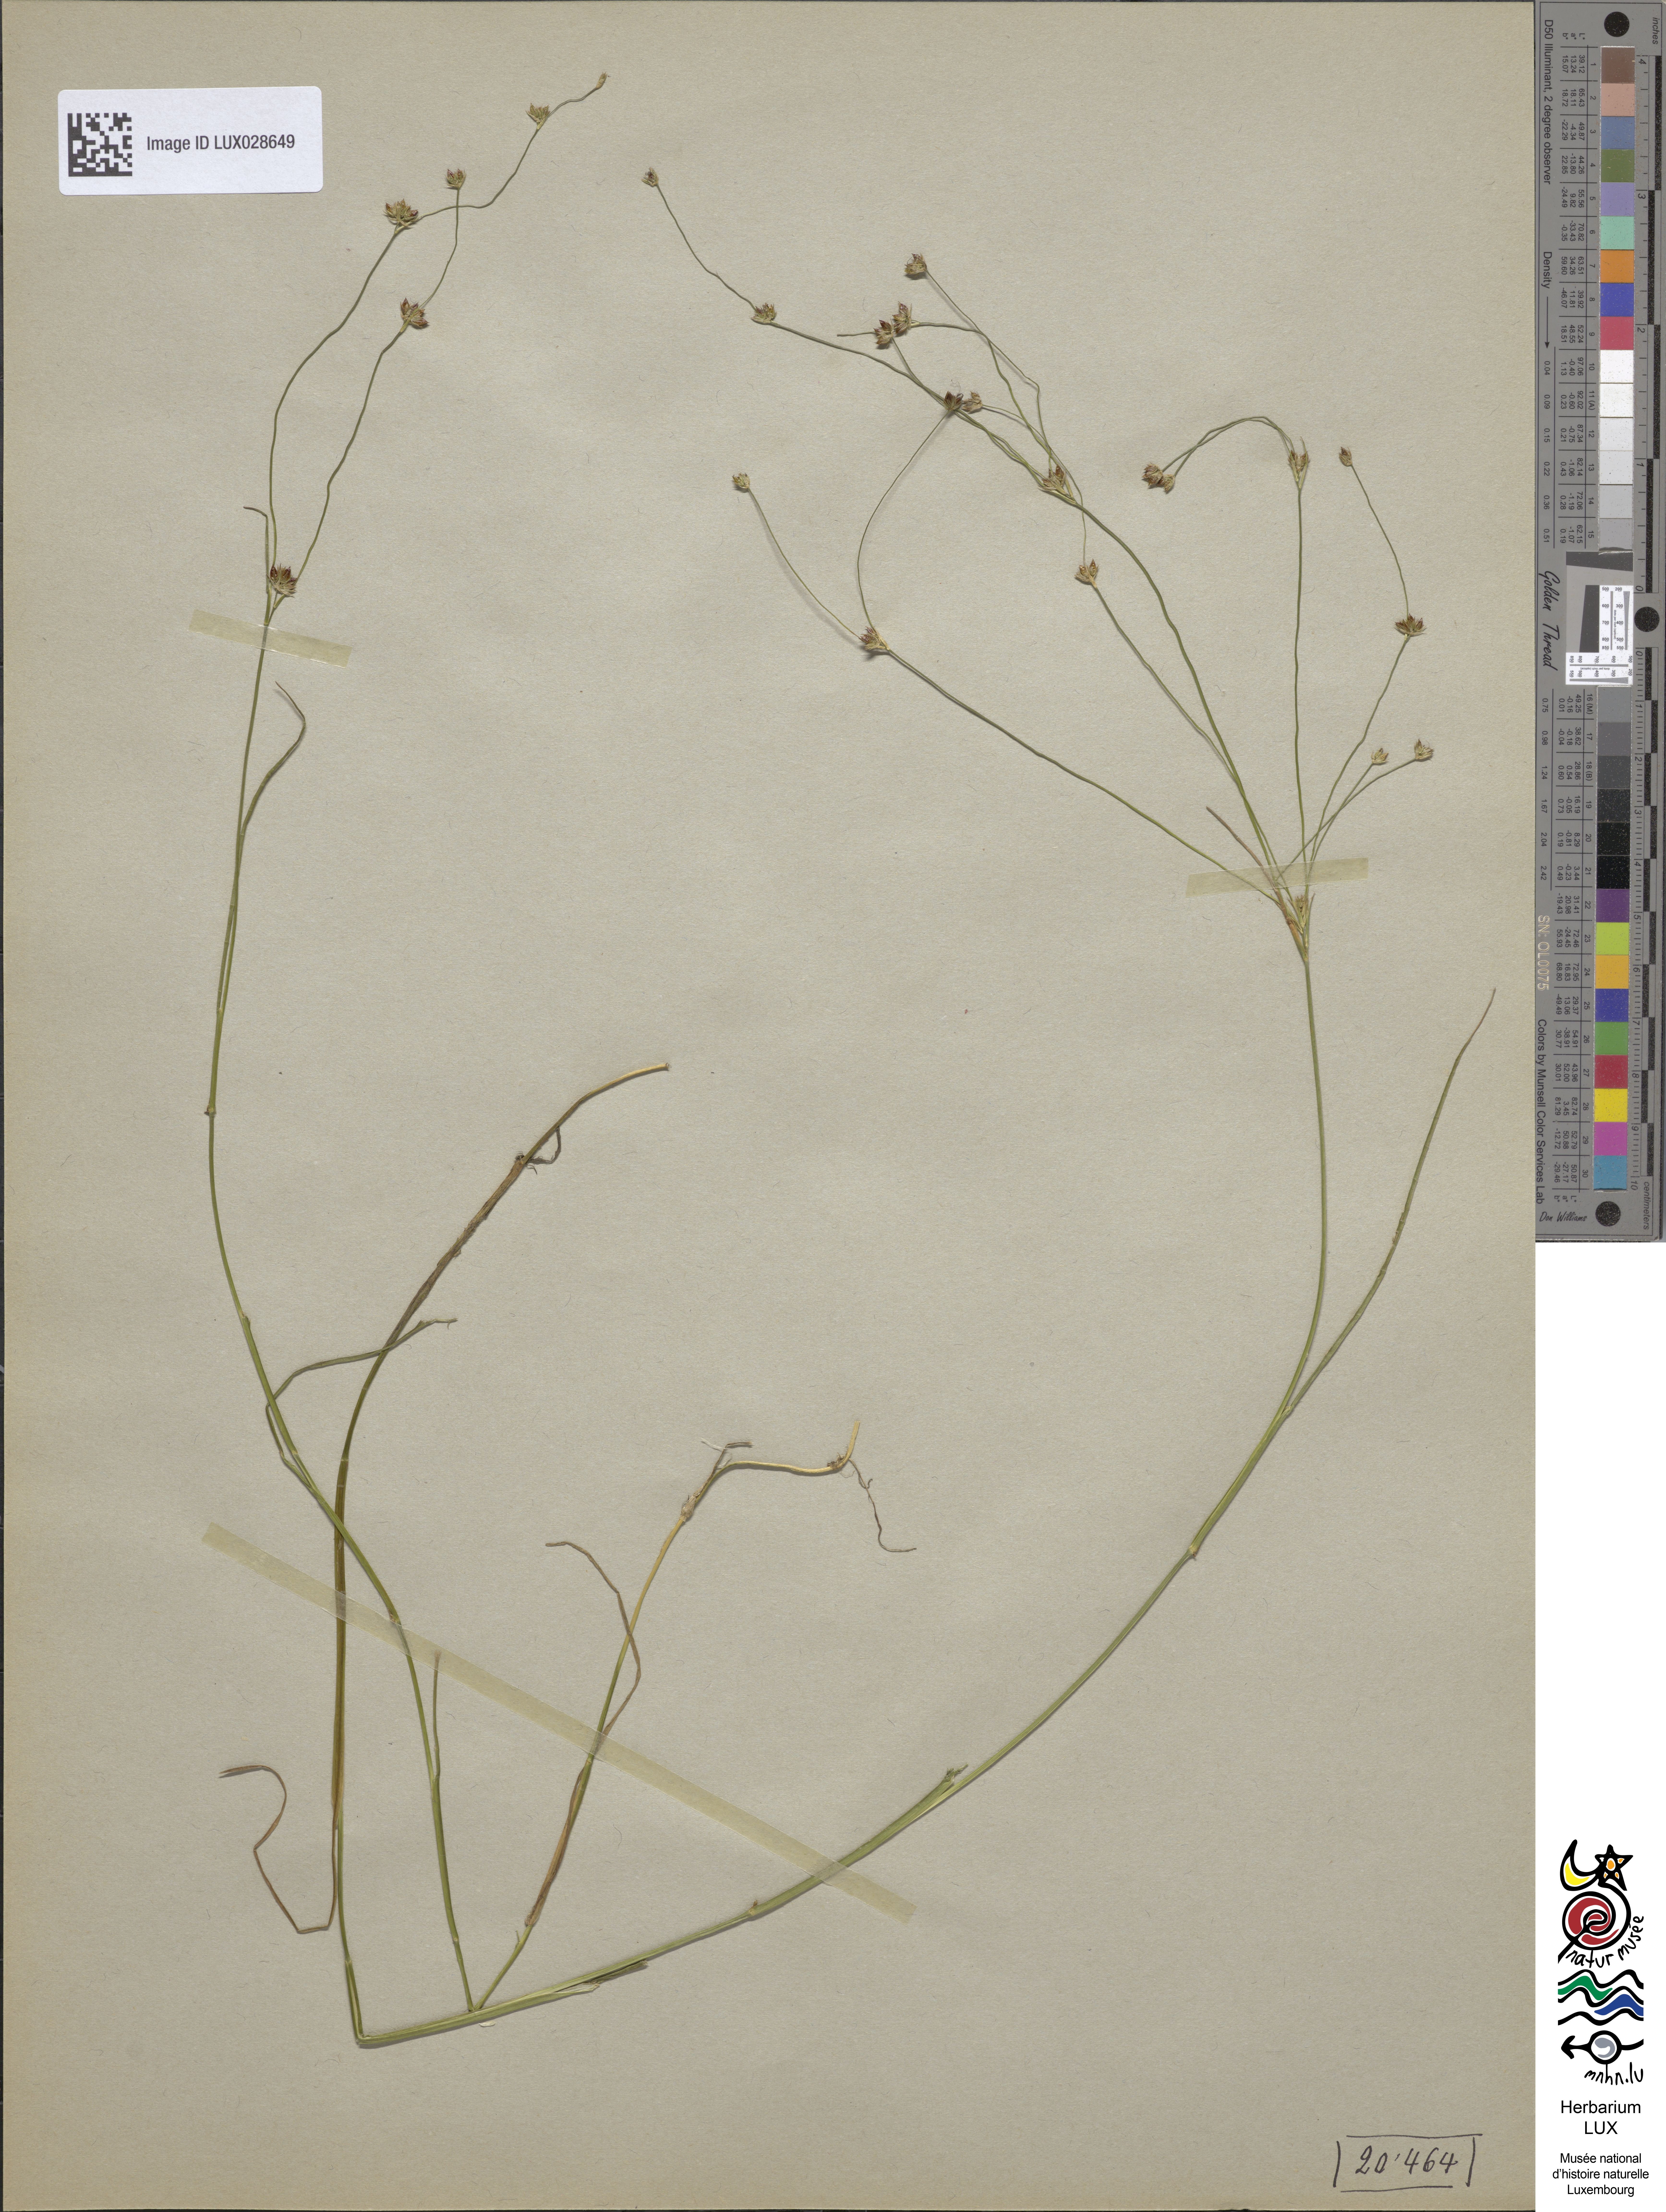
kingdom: Plantae
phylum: Tracheophyta
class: Liliopsida
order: Poales
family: Juncaceae
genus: Juncus
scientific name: Juncus articulatus
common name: Jointed rush
